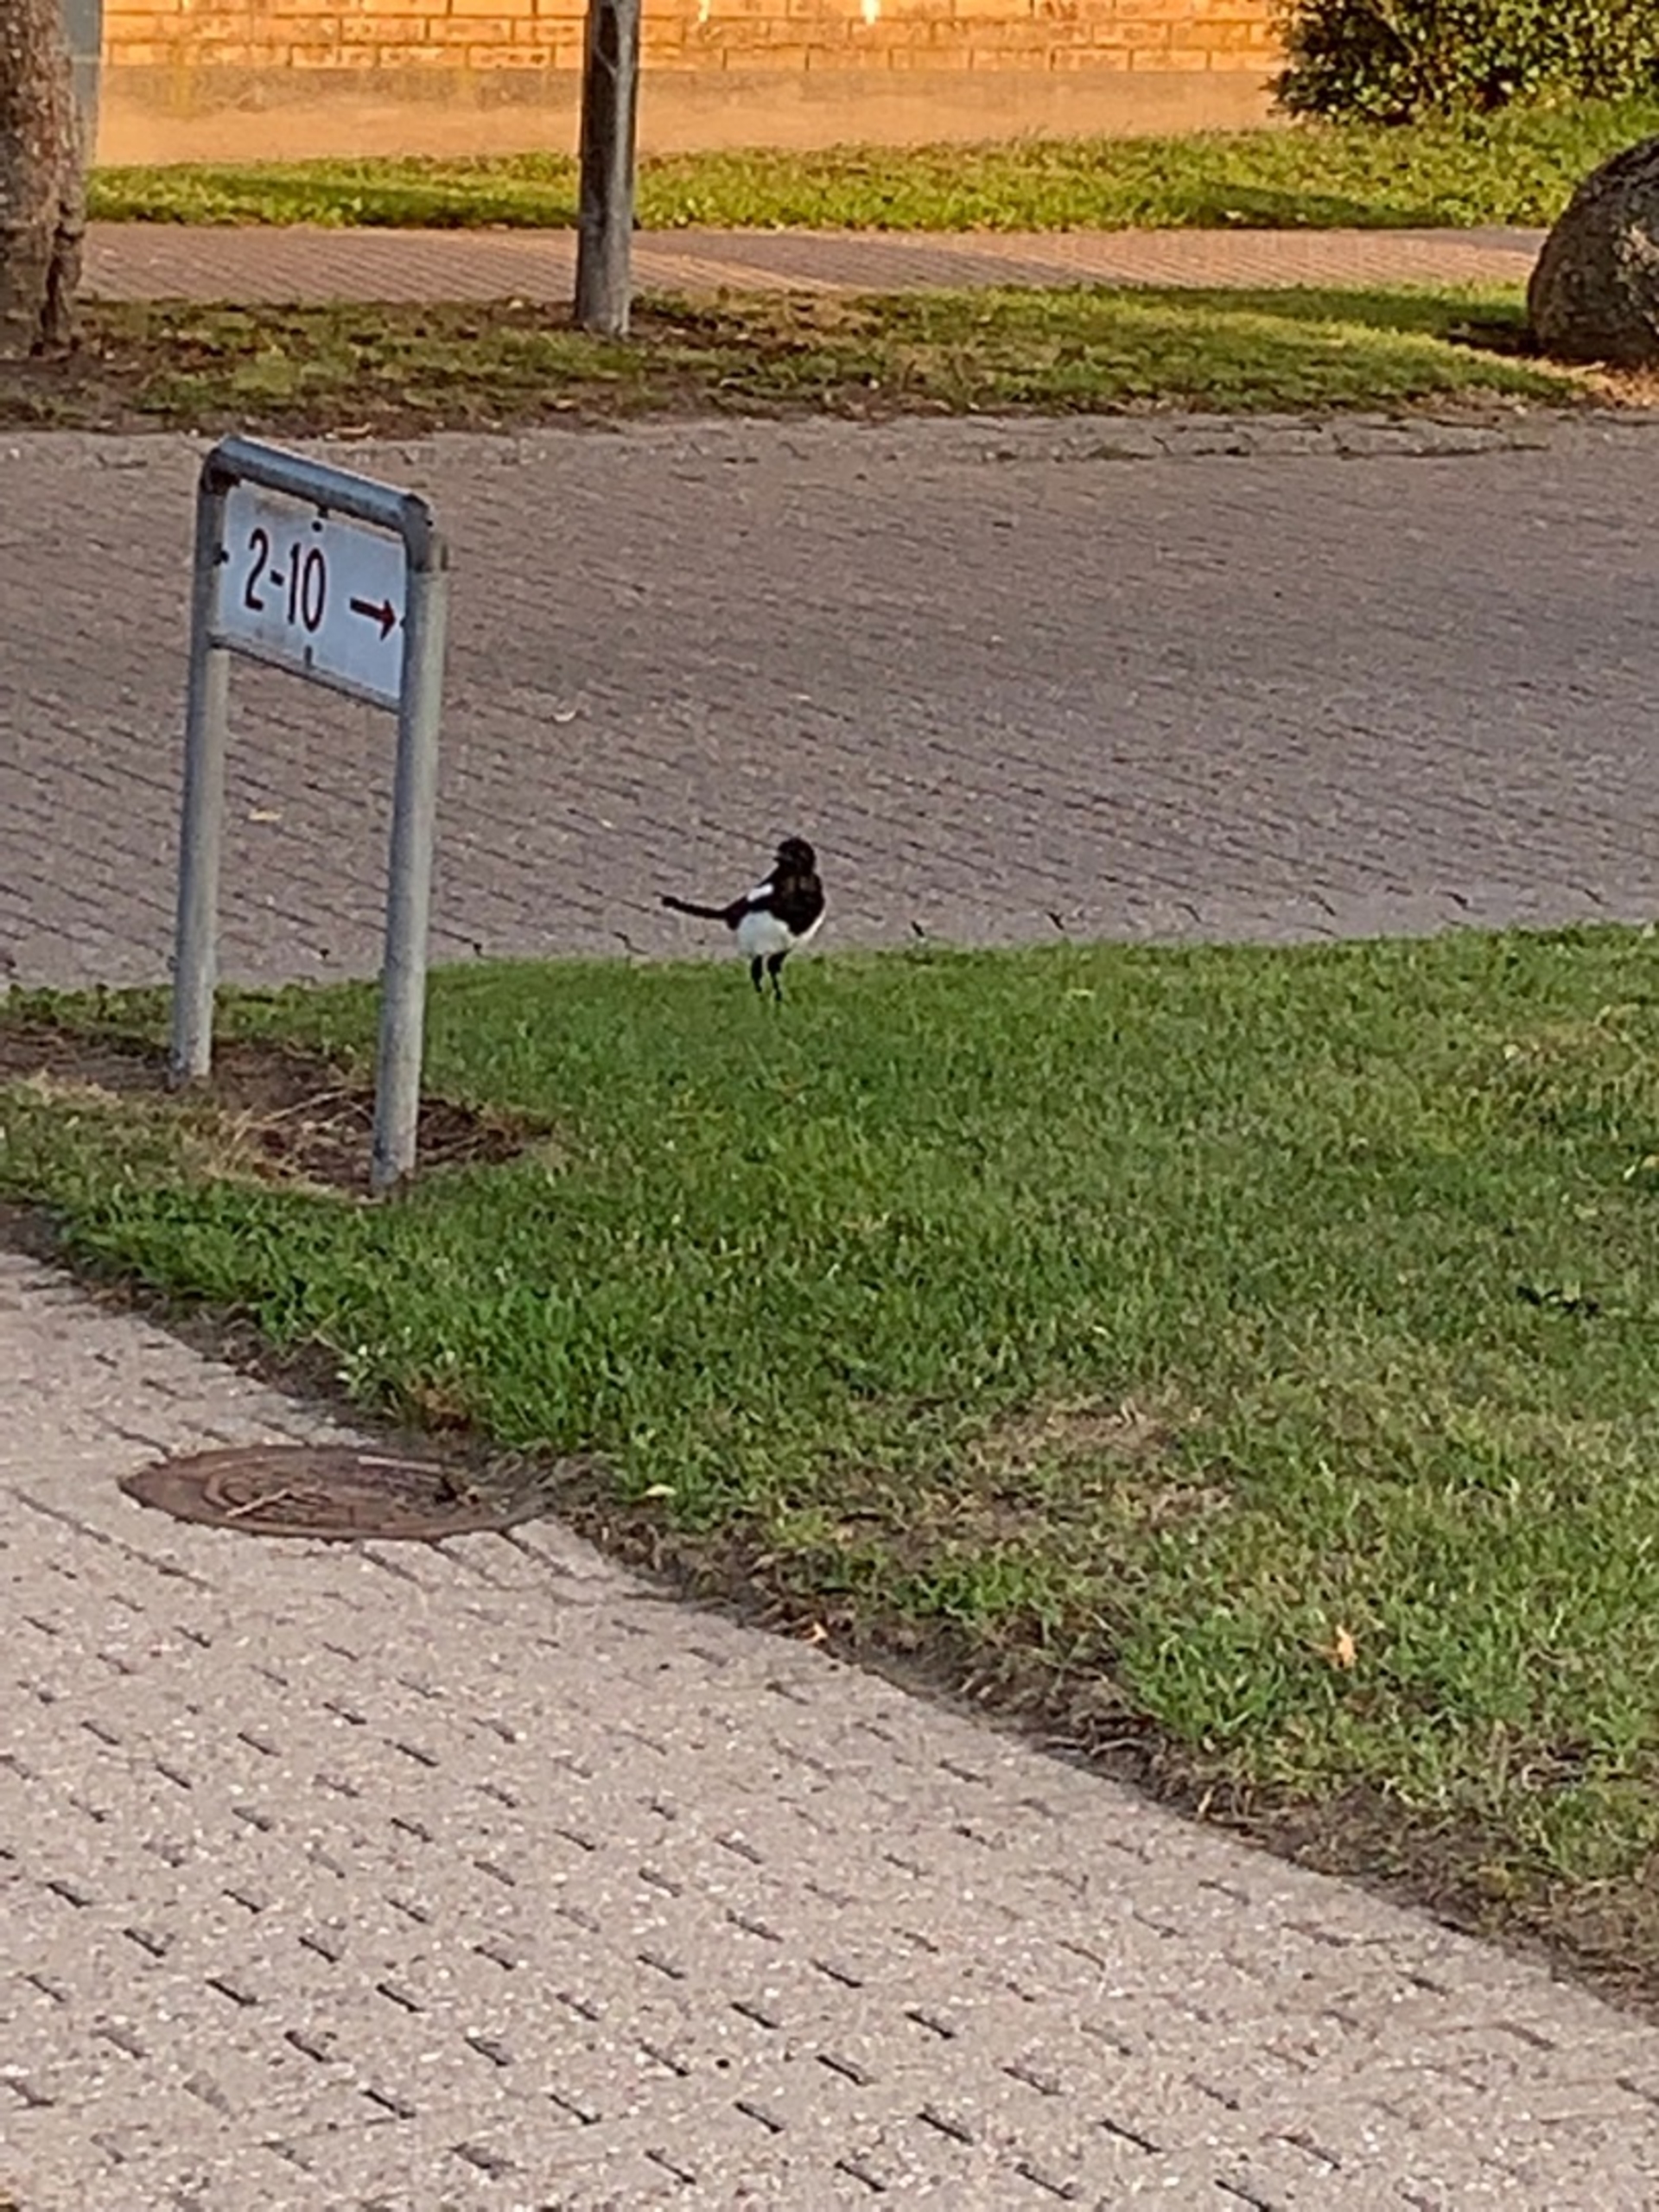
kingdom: Animalia
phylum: Chordata
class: Aves
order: Passeriformes
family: Corvidae
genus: Pica
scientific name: Pica pica
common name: Husskade
